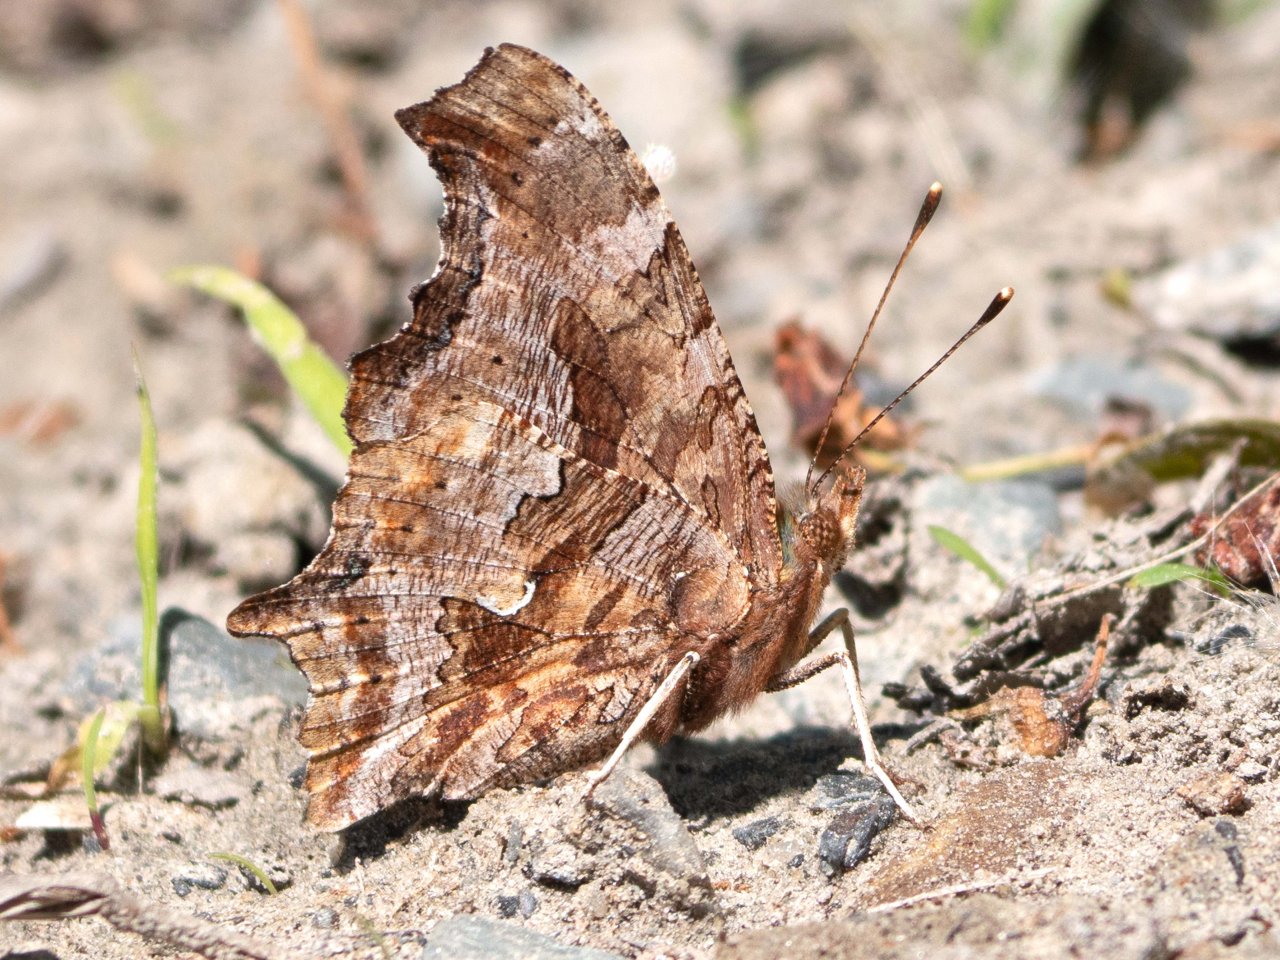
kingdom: Animalia
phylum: Arthropoda
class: Insecta
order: Lepidoptera
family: Nymphalidae
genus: Polygonia
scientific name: Polygonia comma
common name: Eastern Comma
